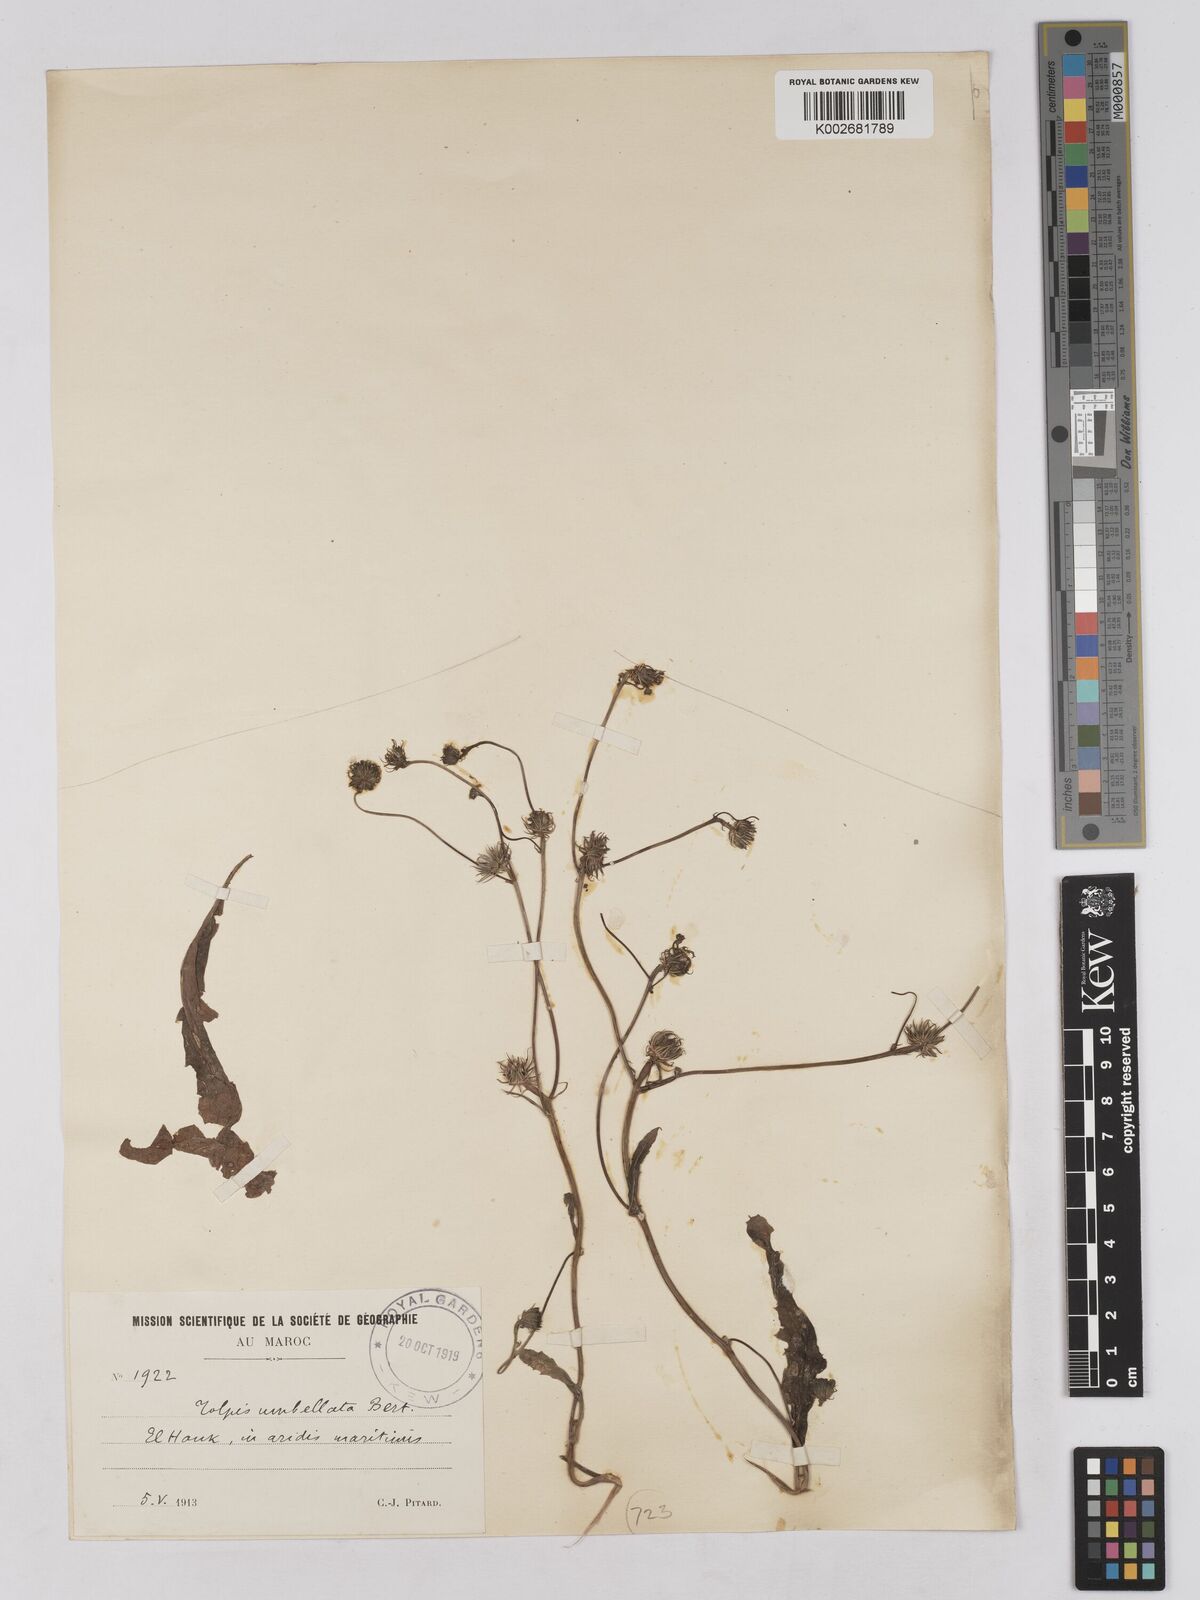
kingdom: Plantae
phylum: Tracheophyta
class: Magnoliopsida
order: Asterales
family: Asteraceae
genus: Tolpis
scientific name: Tolpis umbellata
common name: Yellow hawkweed
